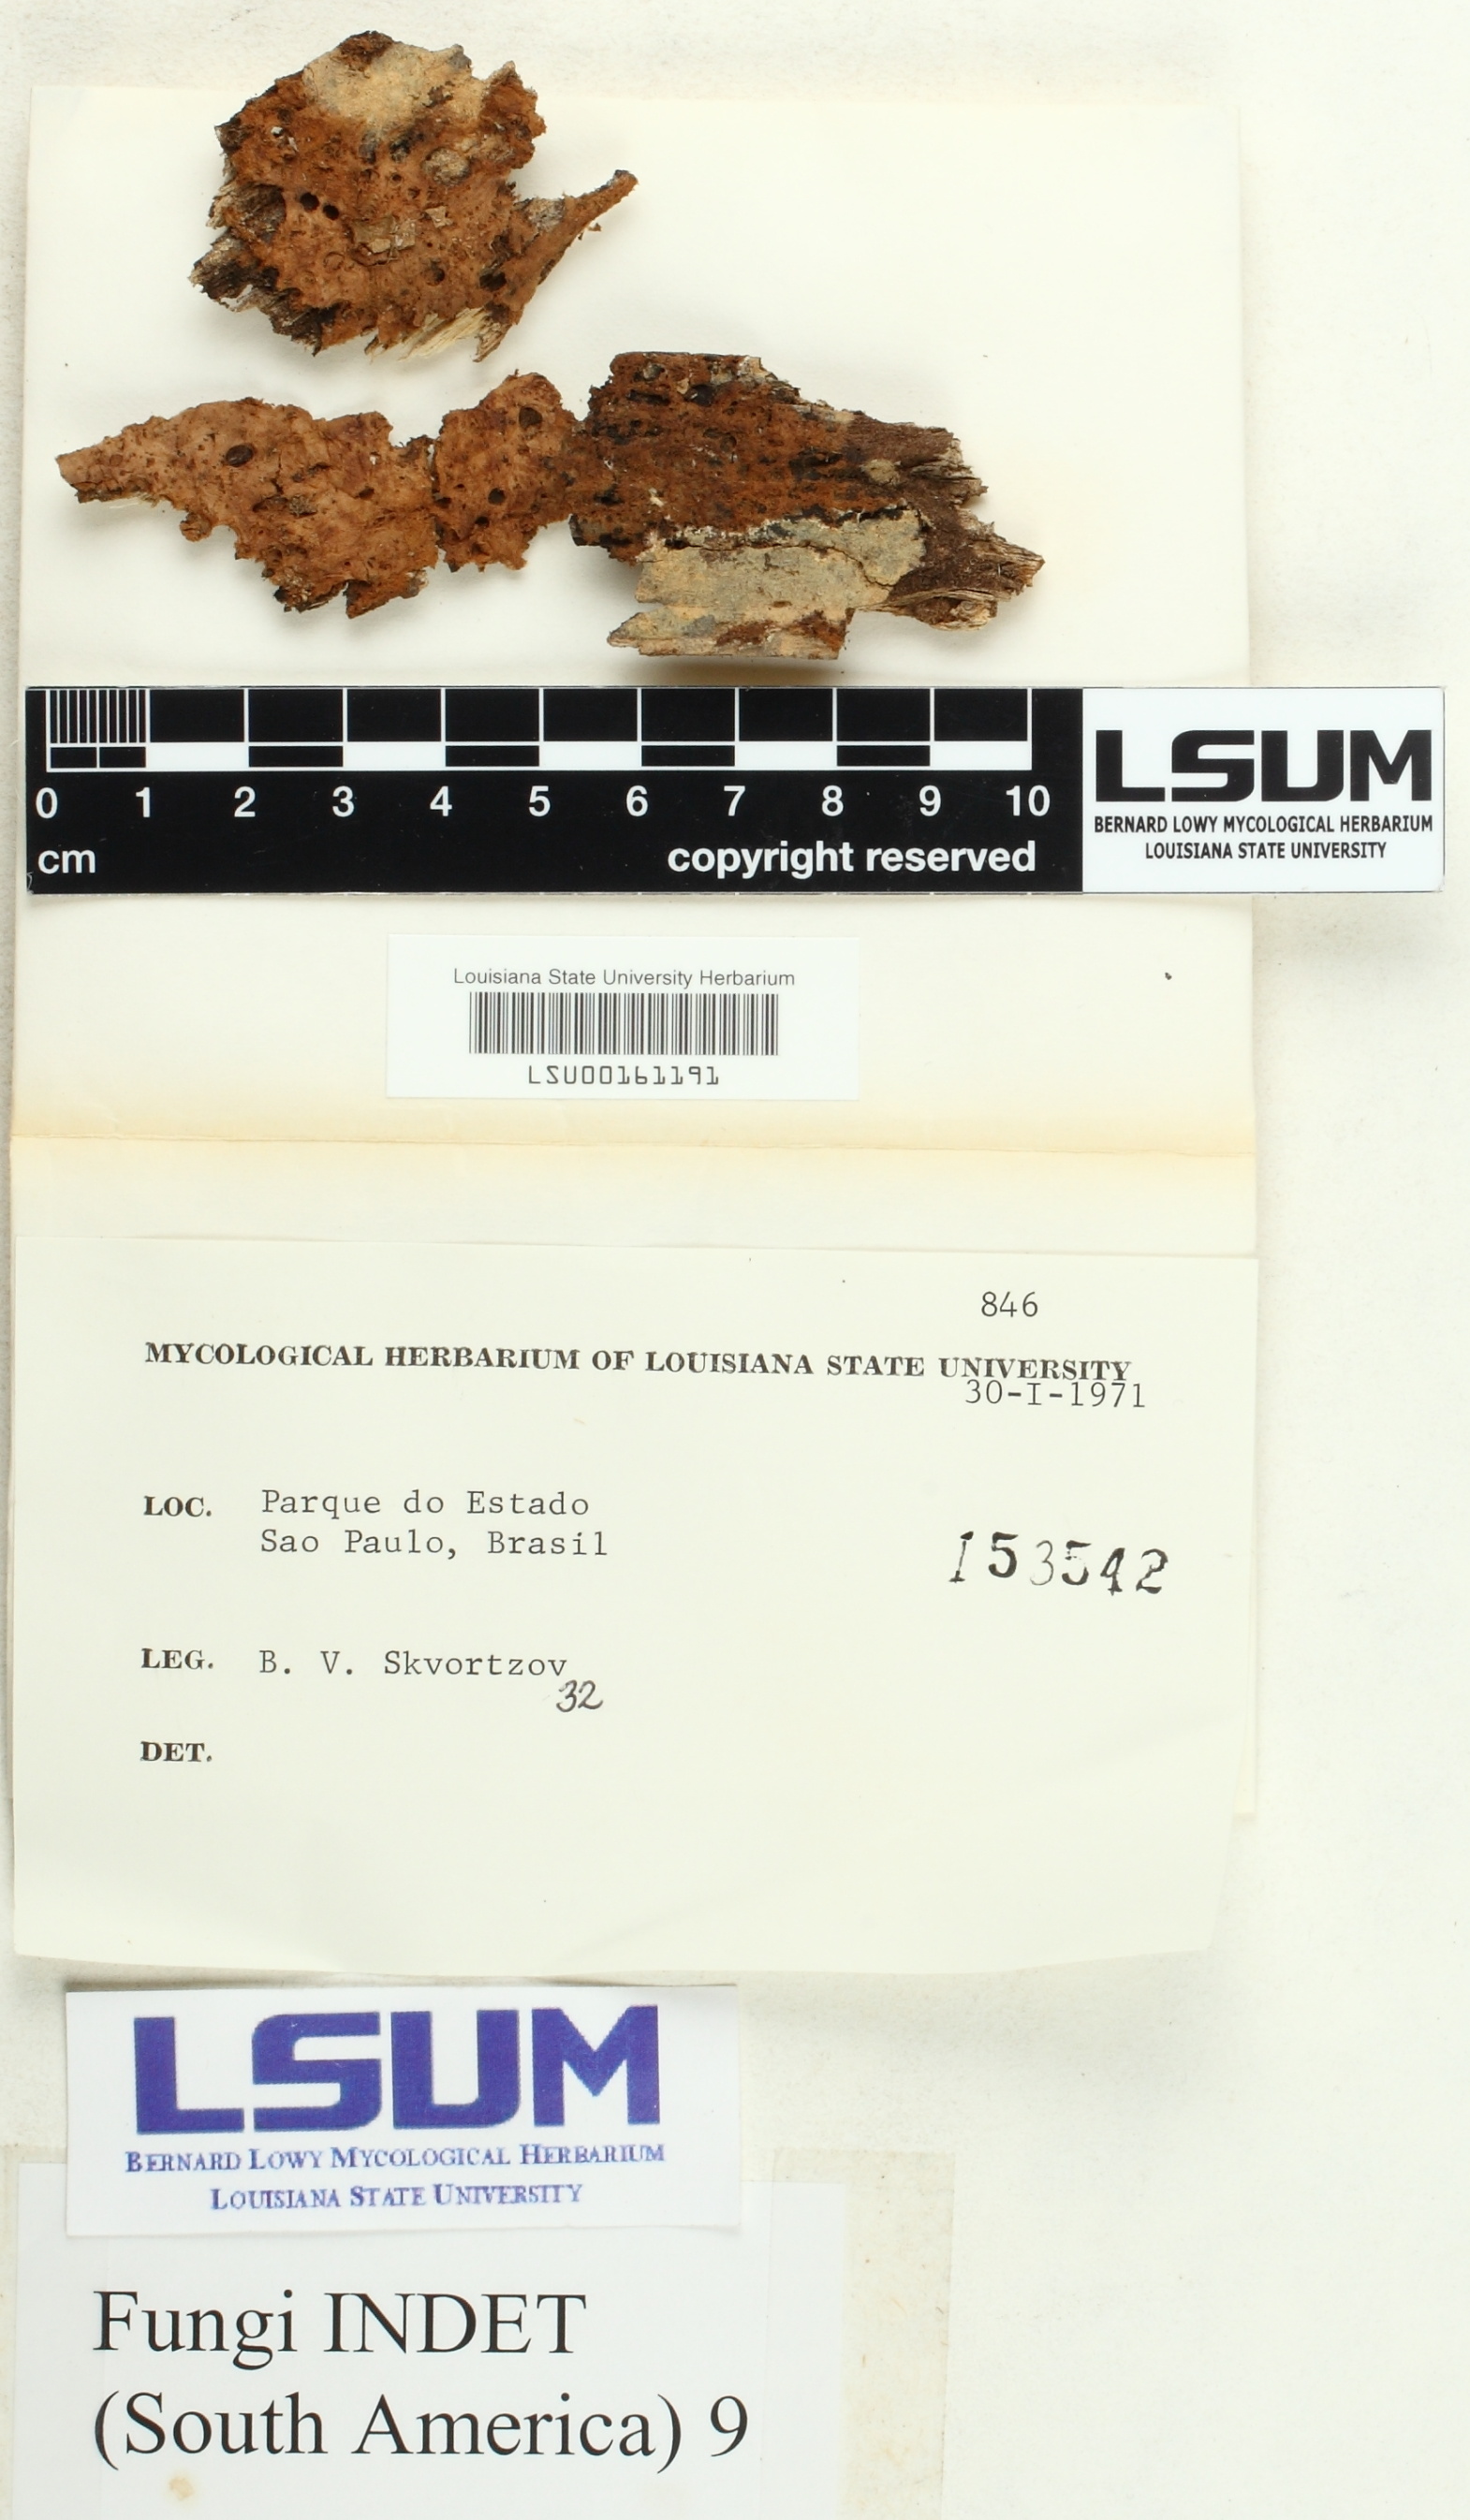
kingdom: Fungi
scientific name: Fungi
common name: Fungi
